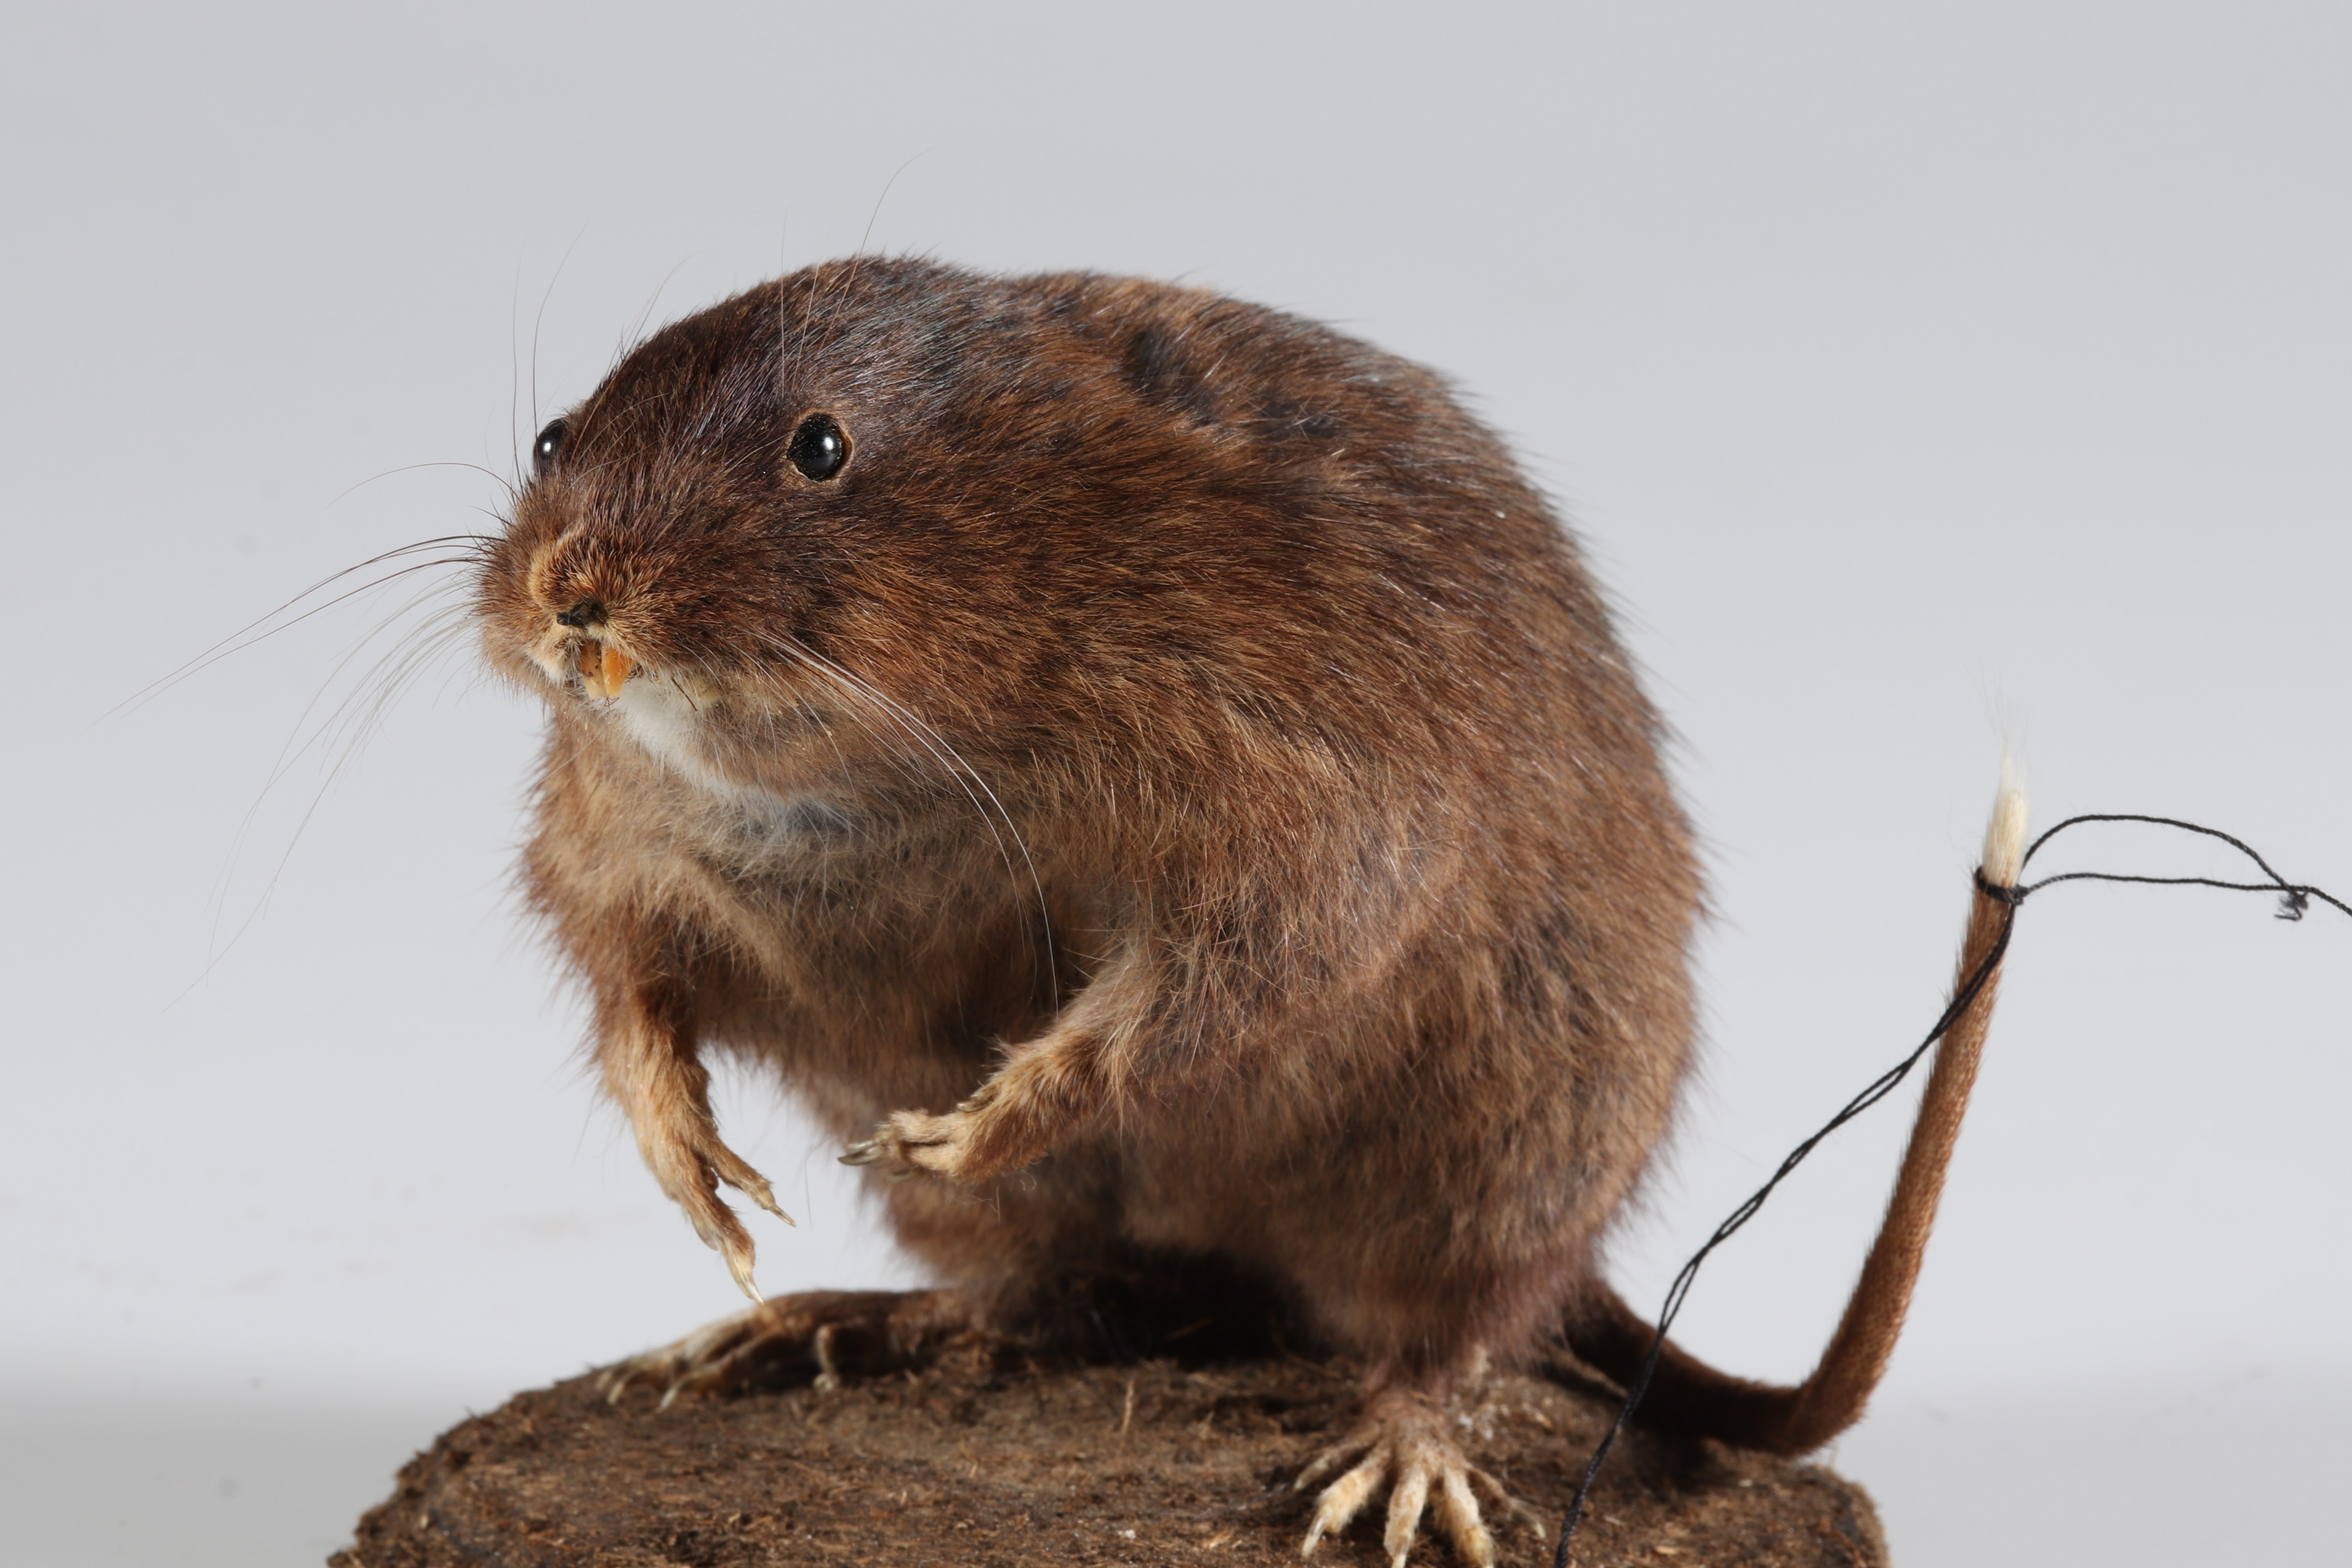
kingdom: Animalia
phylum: Chordata
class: Mammalia
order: Rodentia
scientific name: Rodentia
